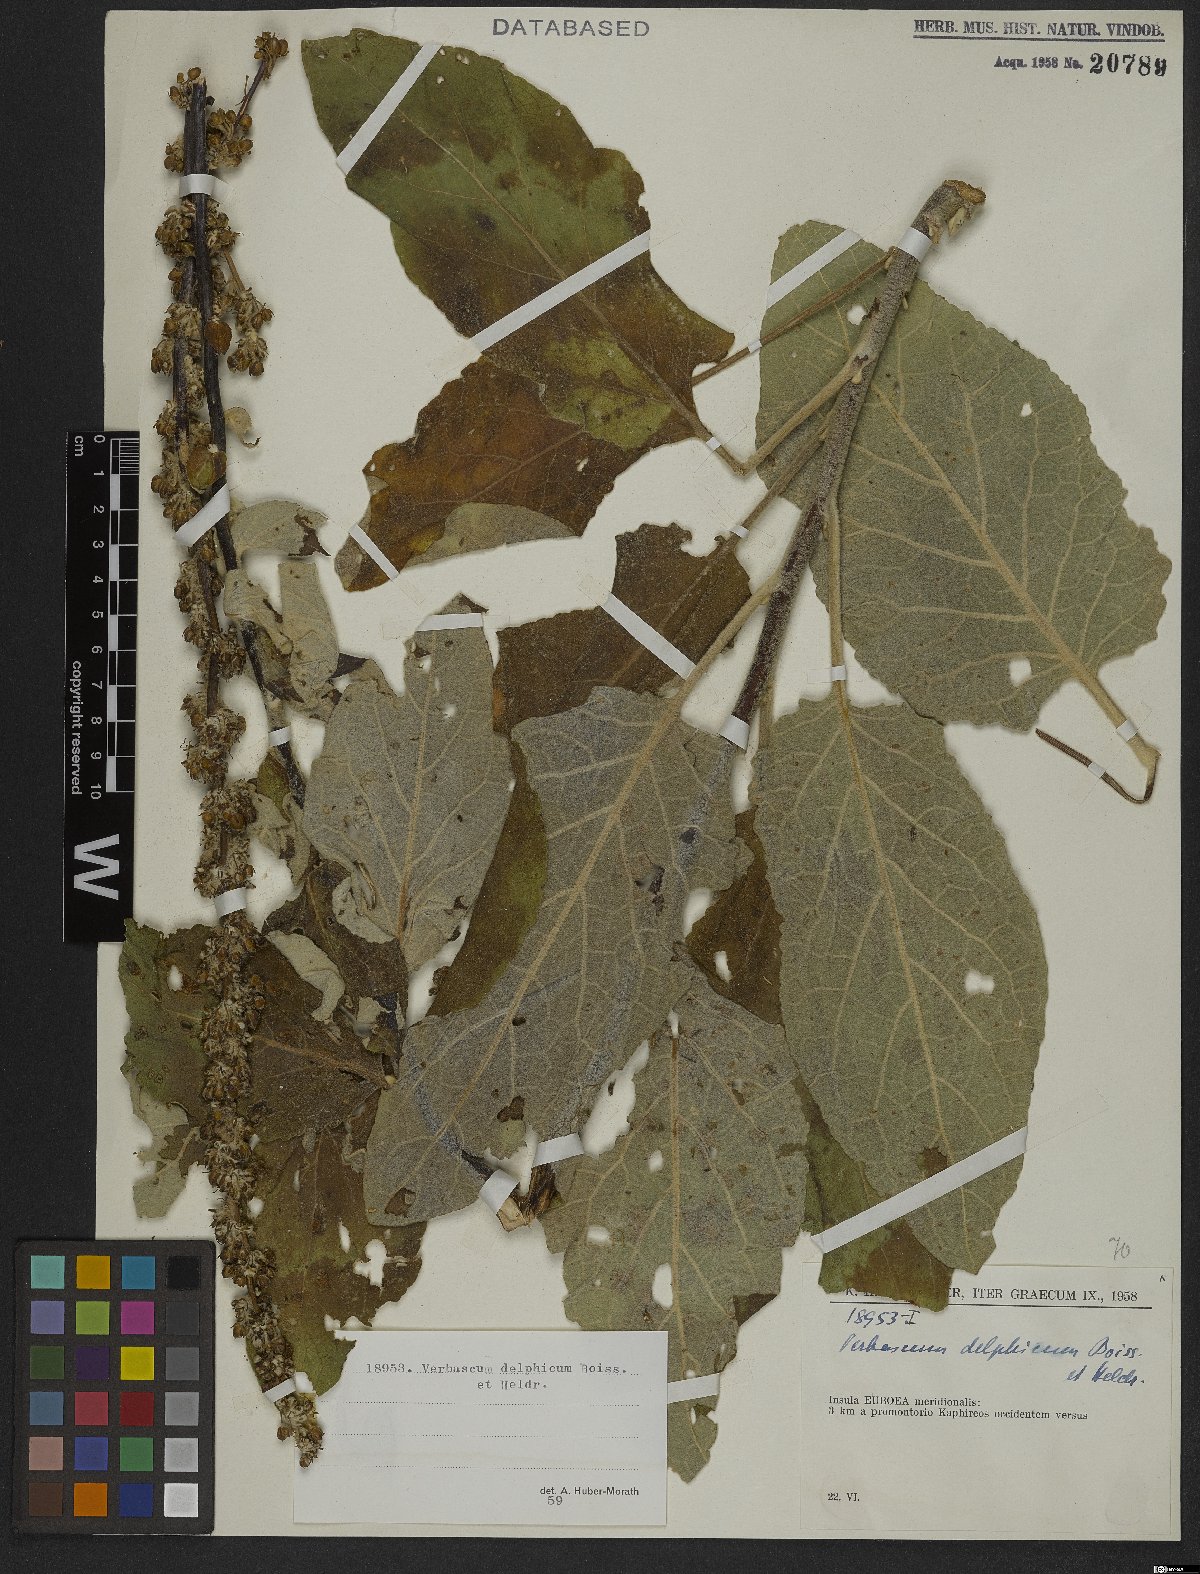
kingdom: Plantae
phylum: Tracheophyta
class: Magnoliopsida
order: Lamiales
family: Scrophulariaceae
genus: Verbascum
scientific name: Verbascum delphicum
